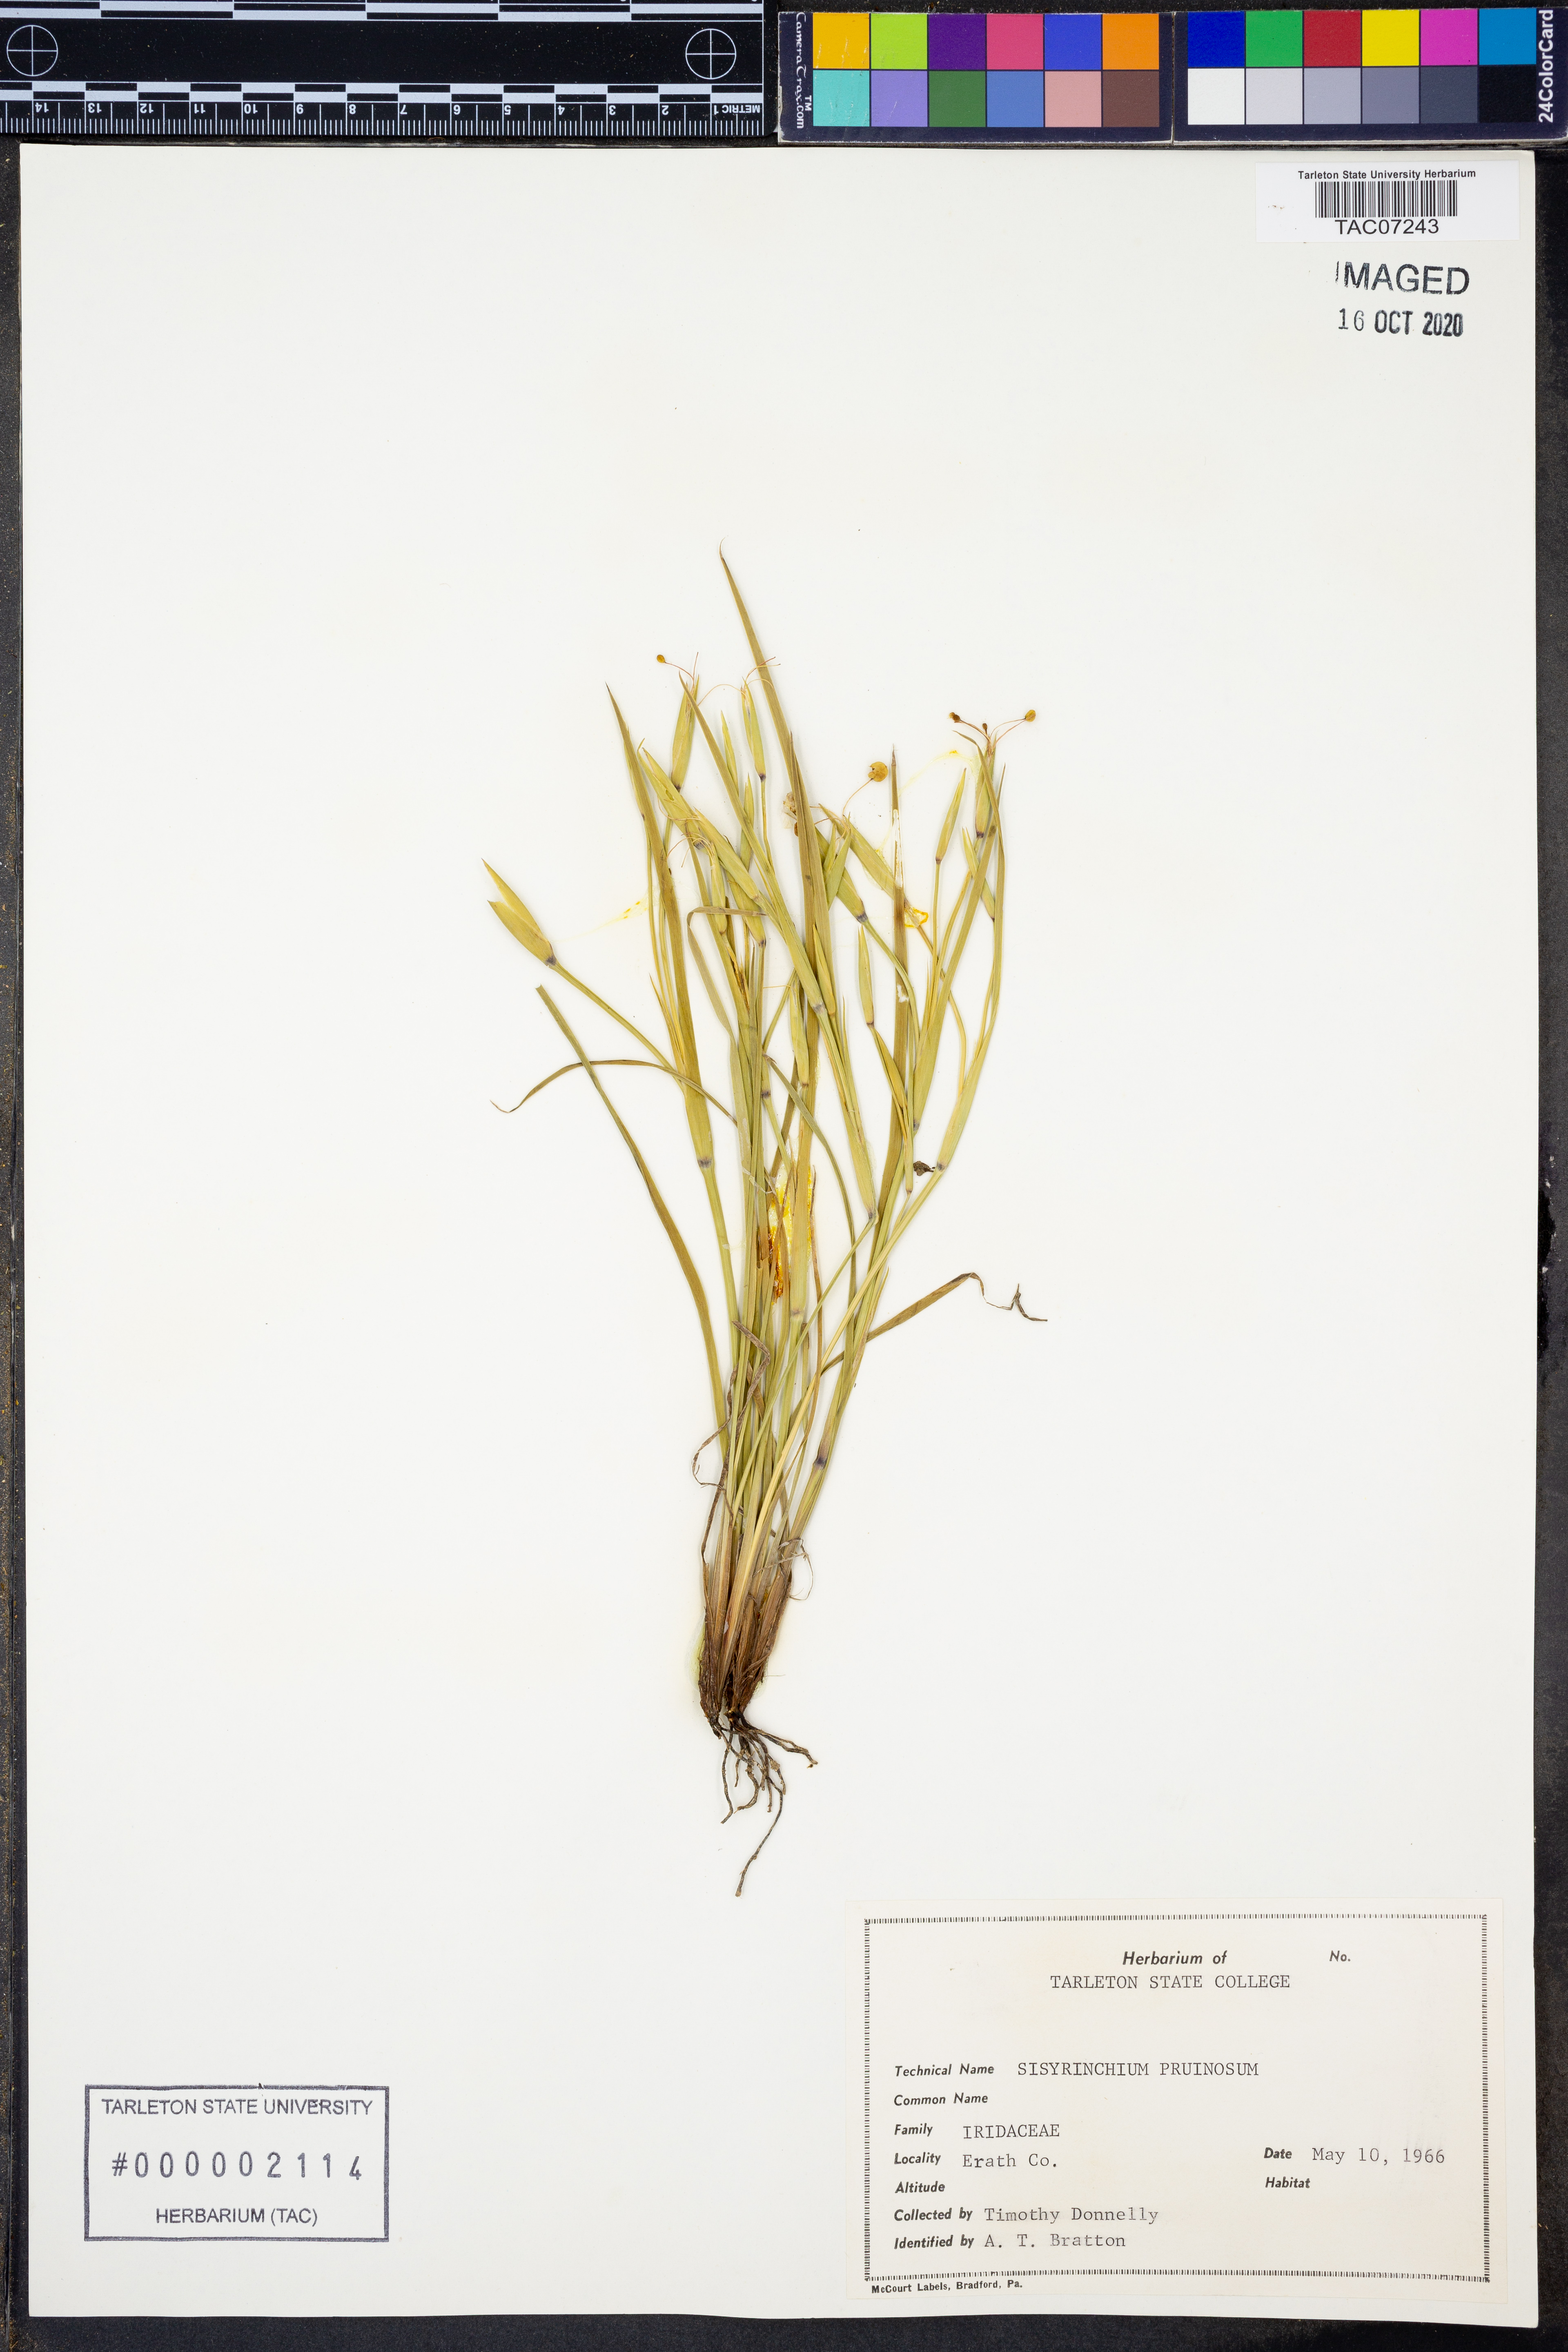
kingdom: Plantae
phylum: Tracheophyta
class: Liliopsida
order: Asparagales
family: Iridaceae
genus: Sisyrinchium
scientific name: Sisyrinchium pruinosum
